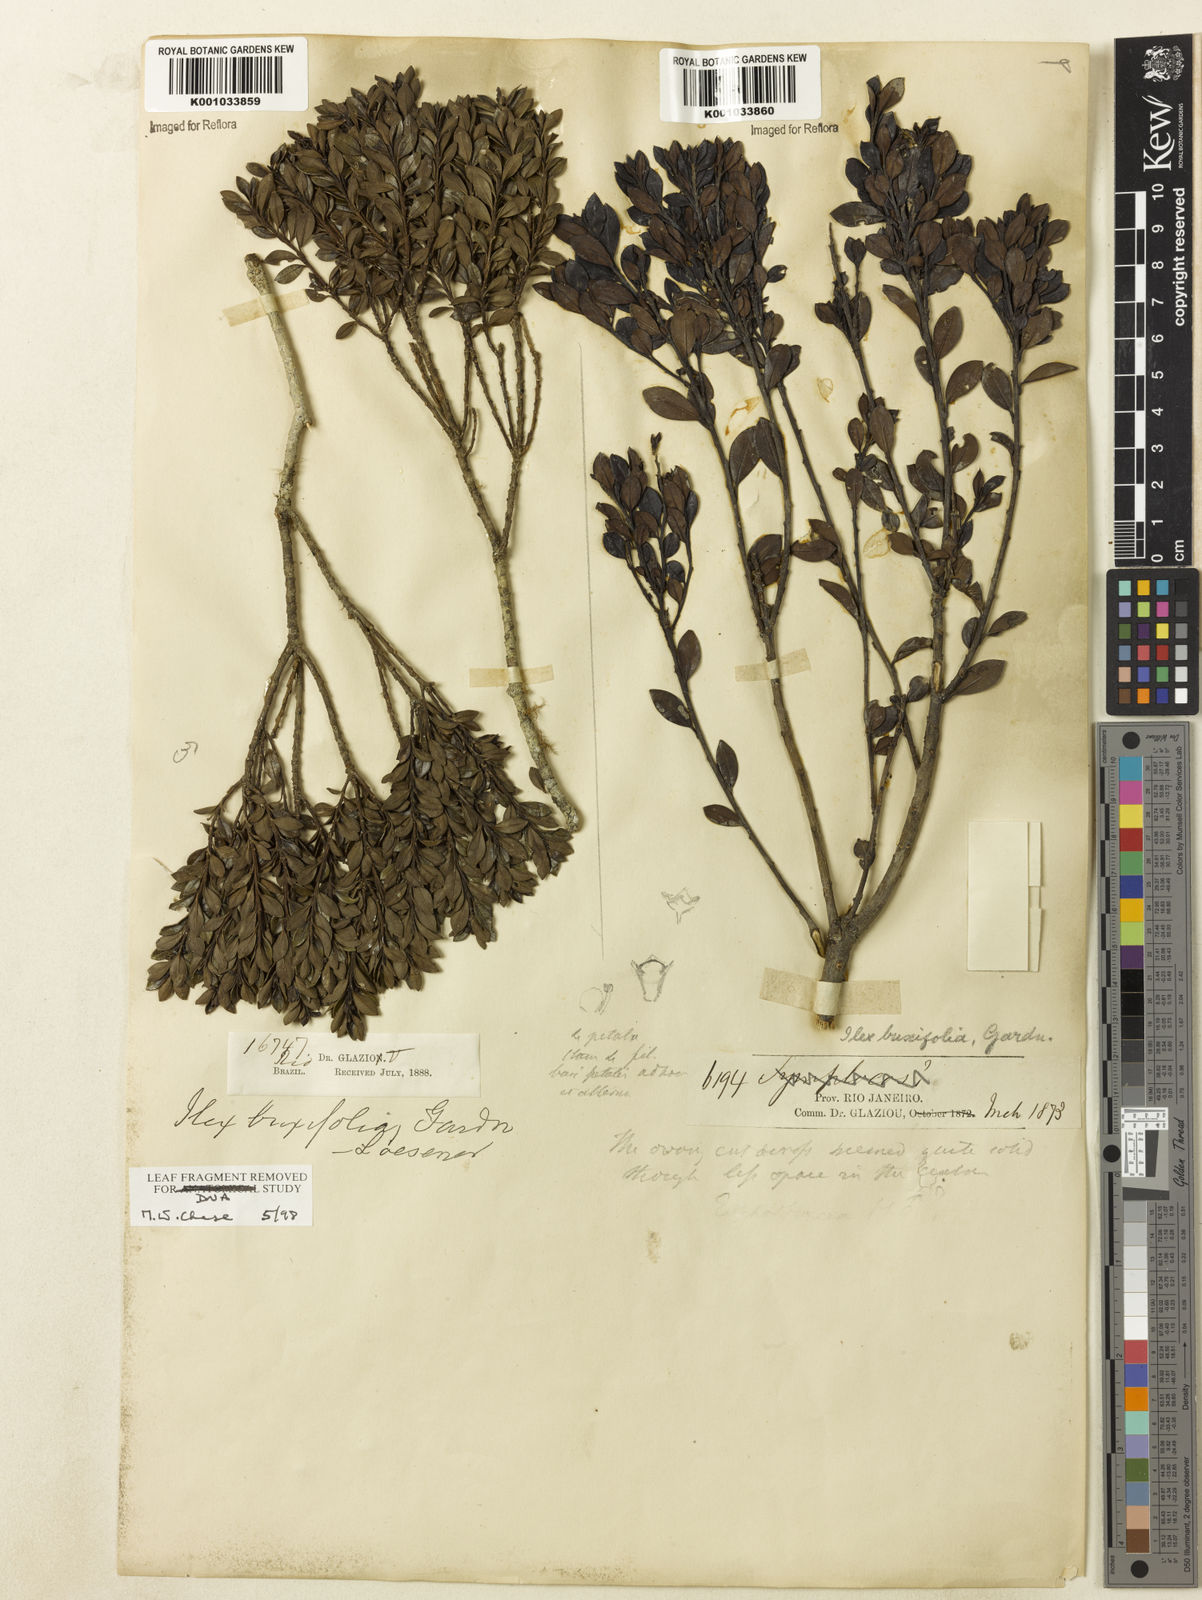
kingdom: Plantae
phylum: Tracheophyta
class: Magnoliopsida
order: Aquifoliales
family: Aquifoliaceae
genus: Ilex
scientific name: Ilex buxifolia
